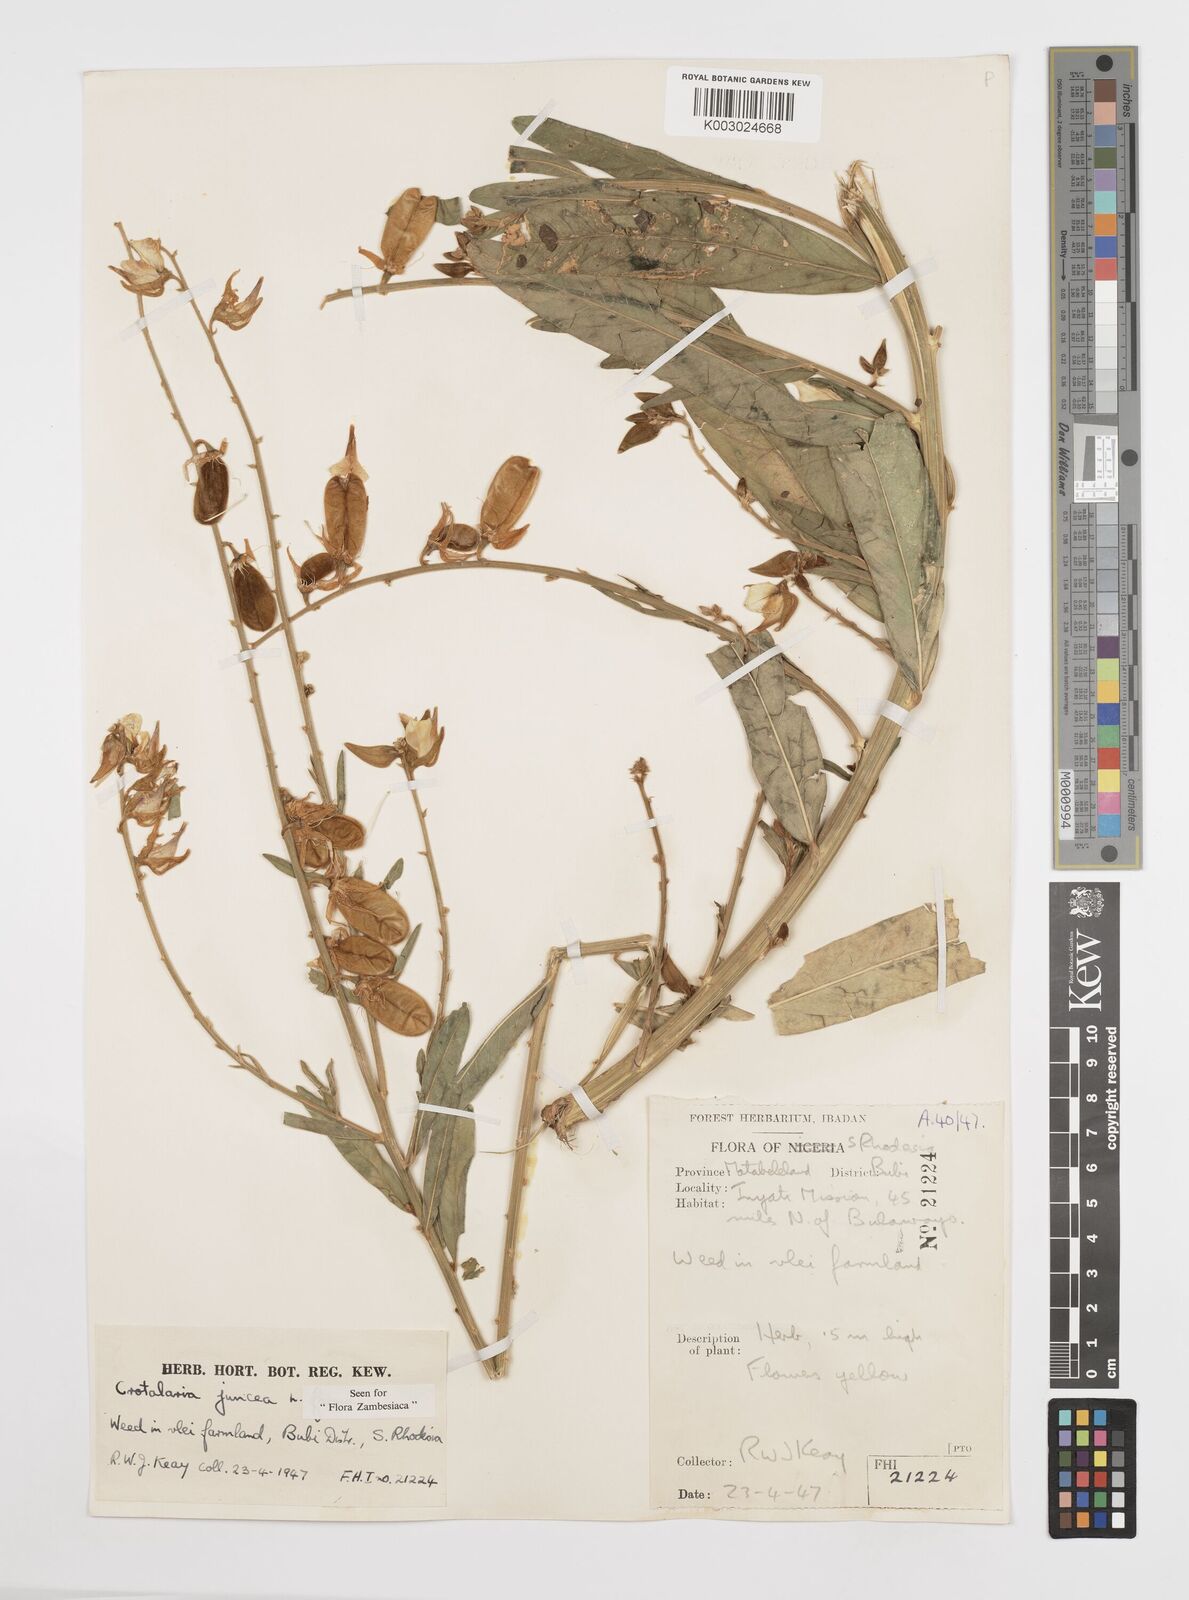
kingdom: Plantae
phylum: Tracheophyta
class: Magnoliopsida
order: Fabales
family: Fabaceae
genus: Crotalaria
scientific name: Crotalaria juncea
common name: Sunn hemp
